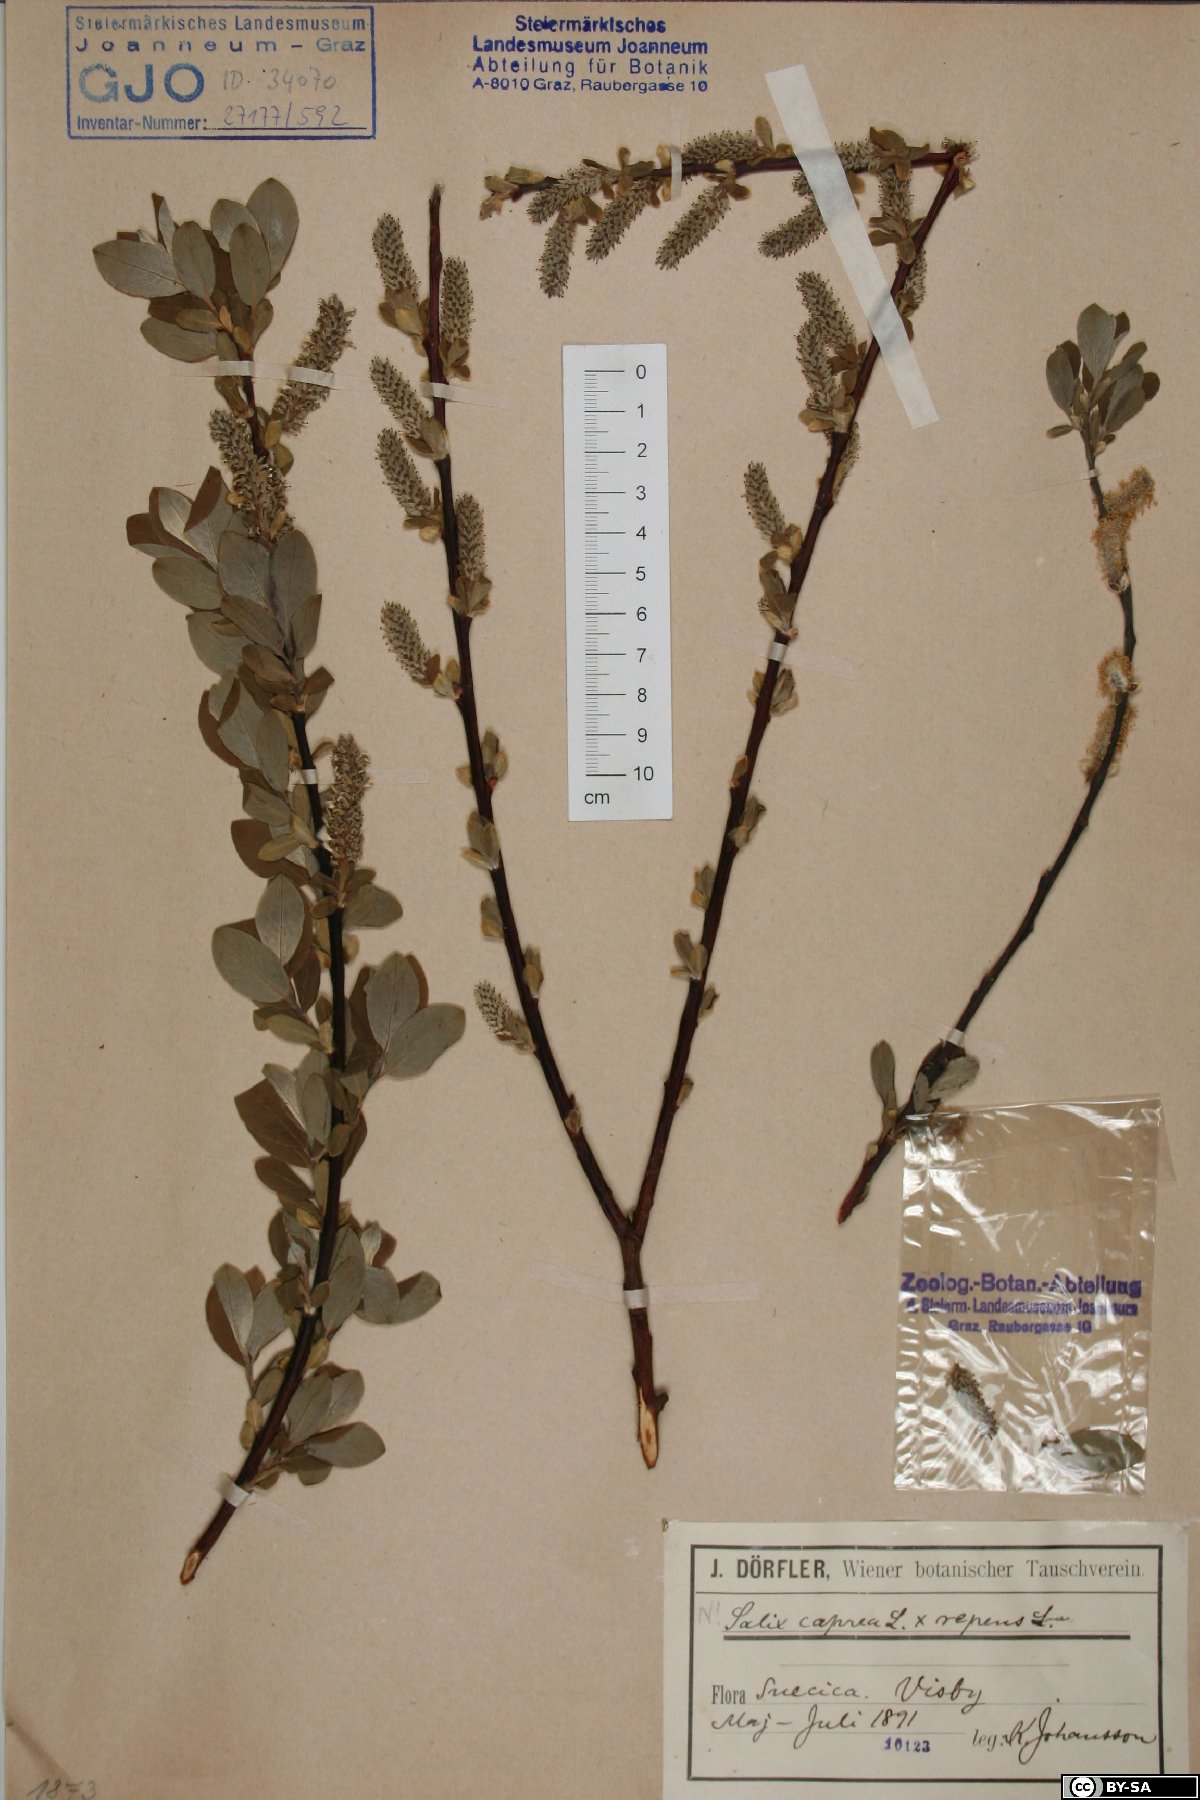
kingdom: Plantae
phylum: Tracheophyta
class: Magnoliopsida
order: Malpighiales
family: Salicaceae
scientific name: Salicaceae
